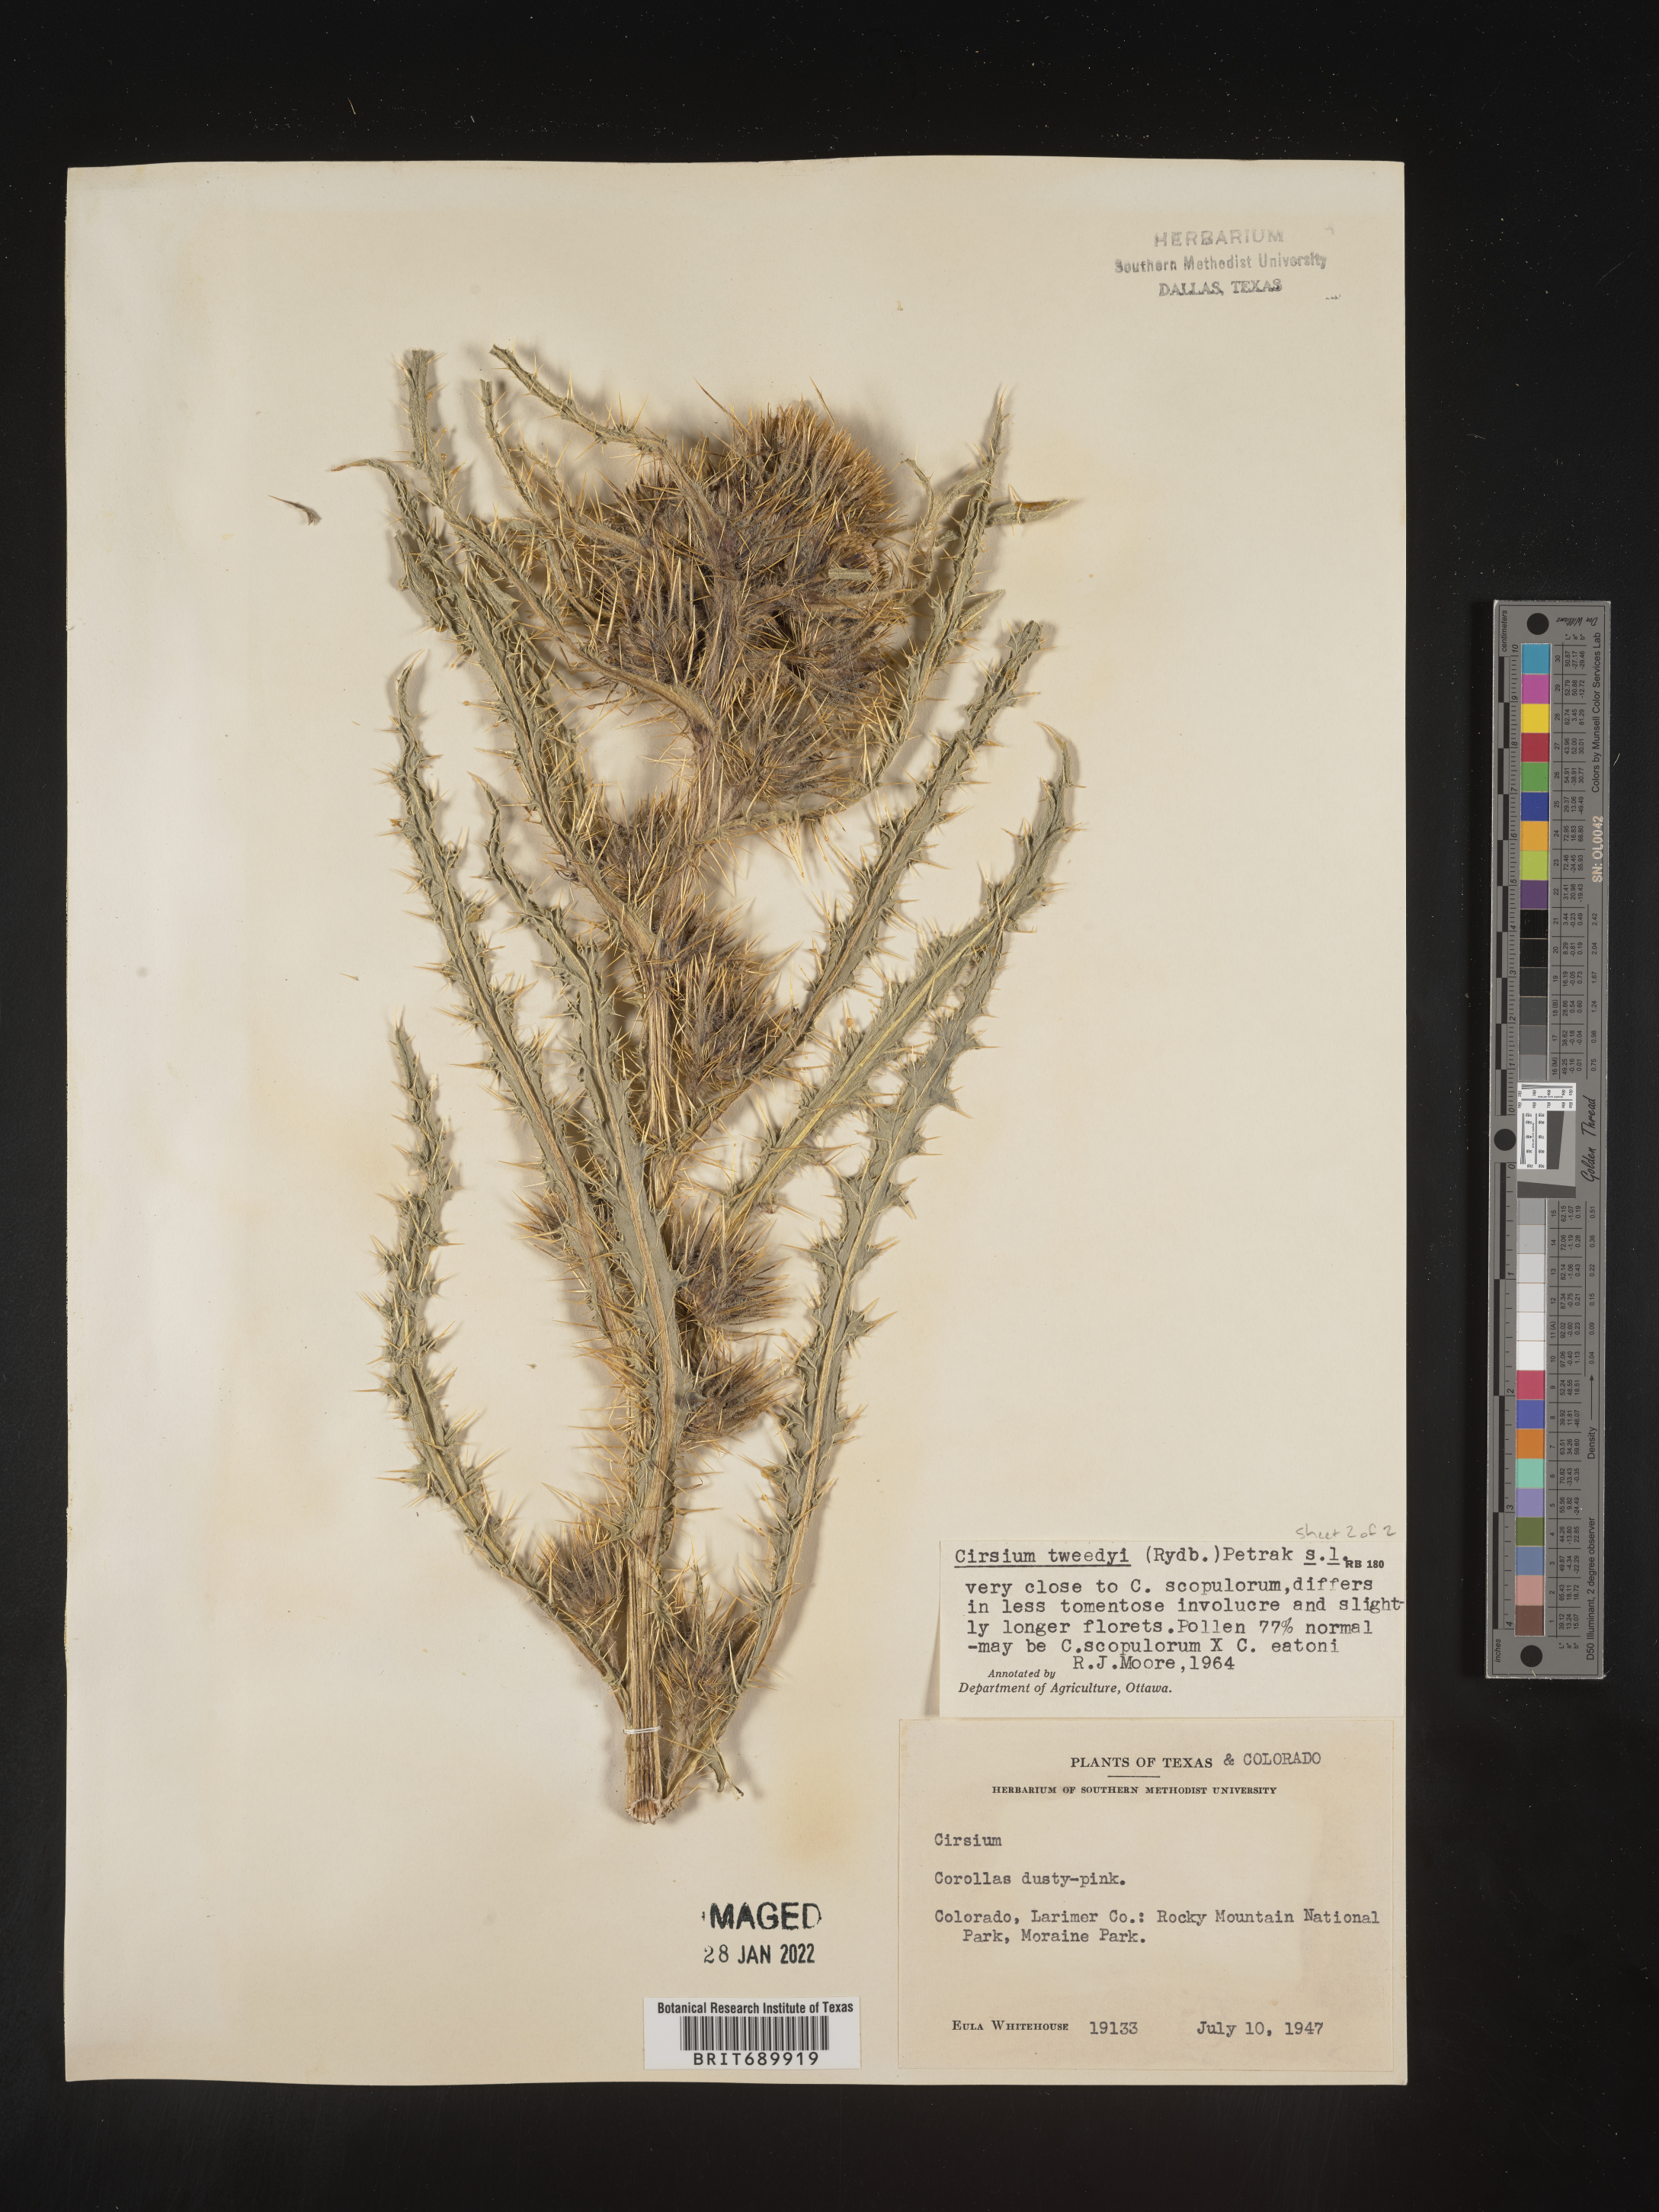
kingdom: Plantae
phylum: Tracheophyta
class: Magnoliopsida
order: Asterales
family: Asteraceae
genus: Cirsium
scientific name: Cirsium
